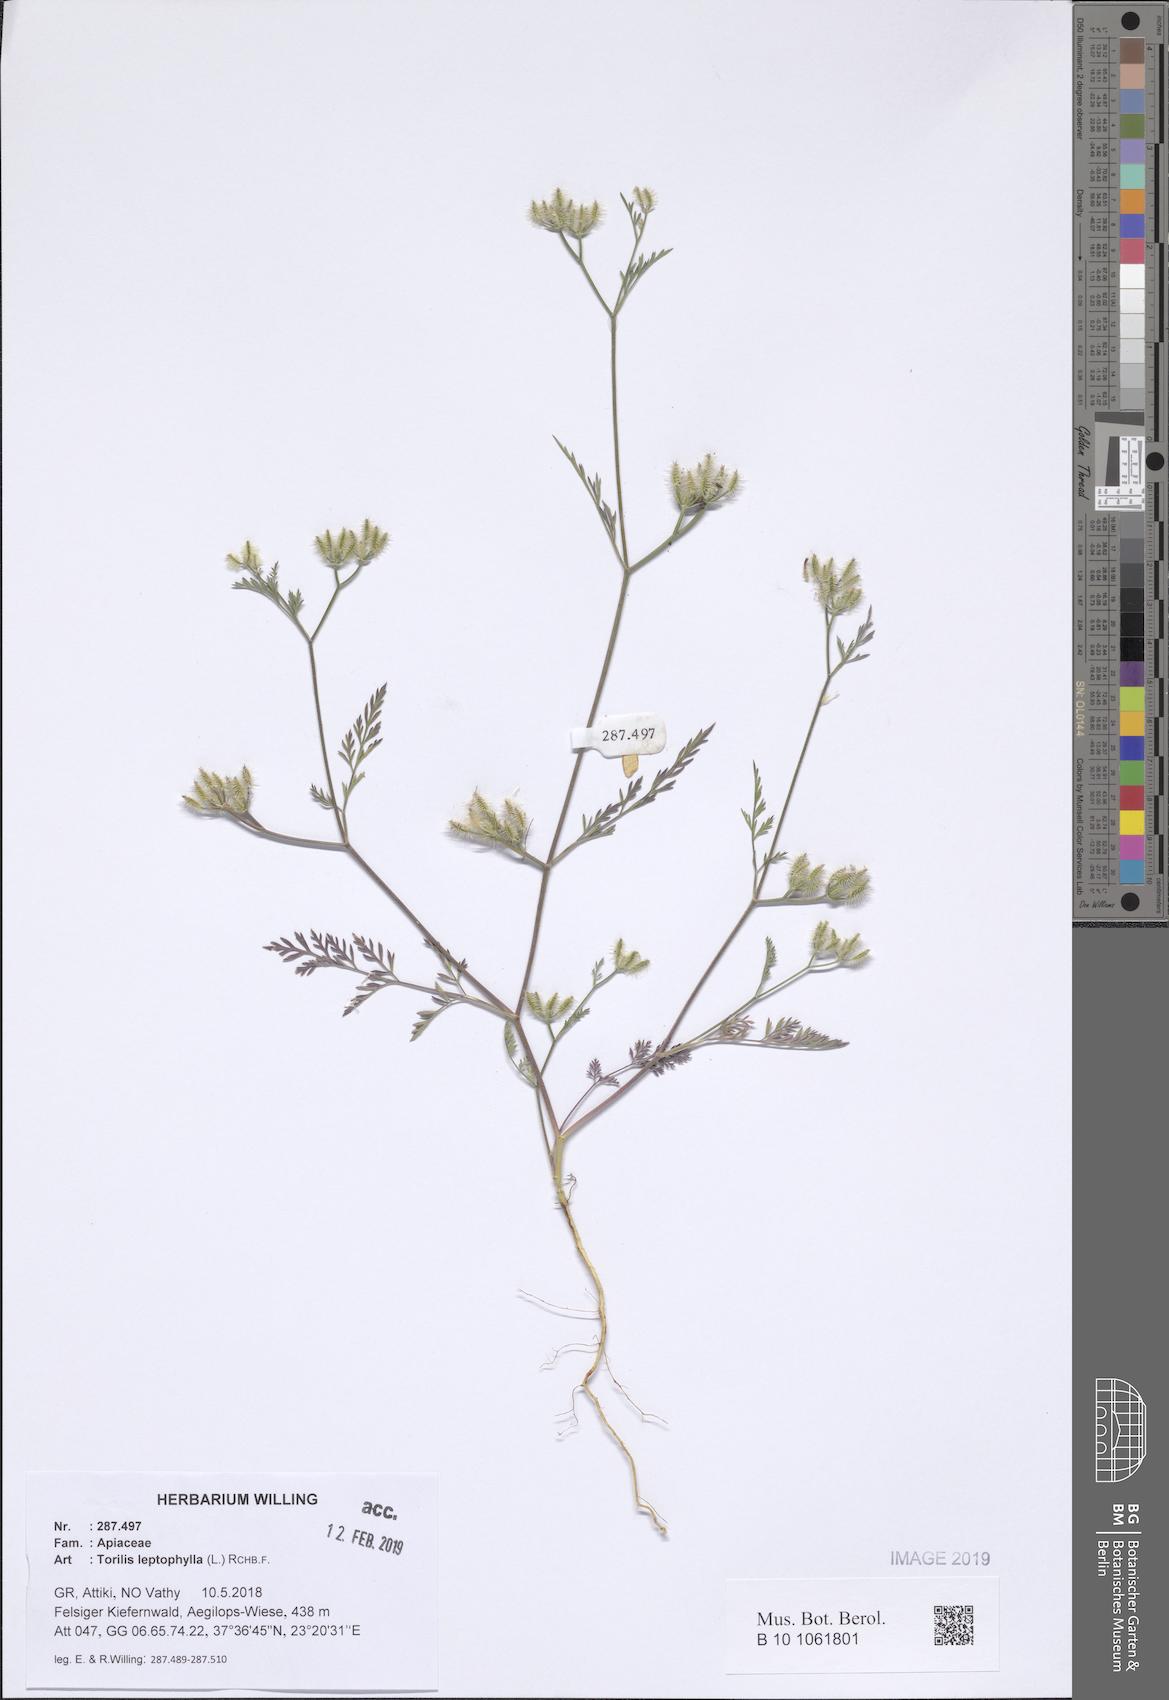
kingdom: Plantae
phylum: Tracheophyta
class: Magnoliopsida
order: Apiales
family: Apiaceae
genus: Torilis
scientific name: Torilis leptophylla
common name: Bristlefruit hedgeparsley
